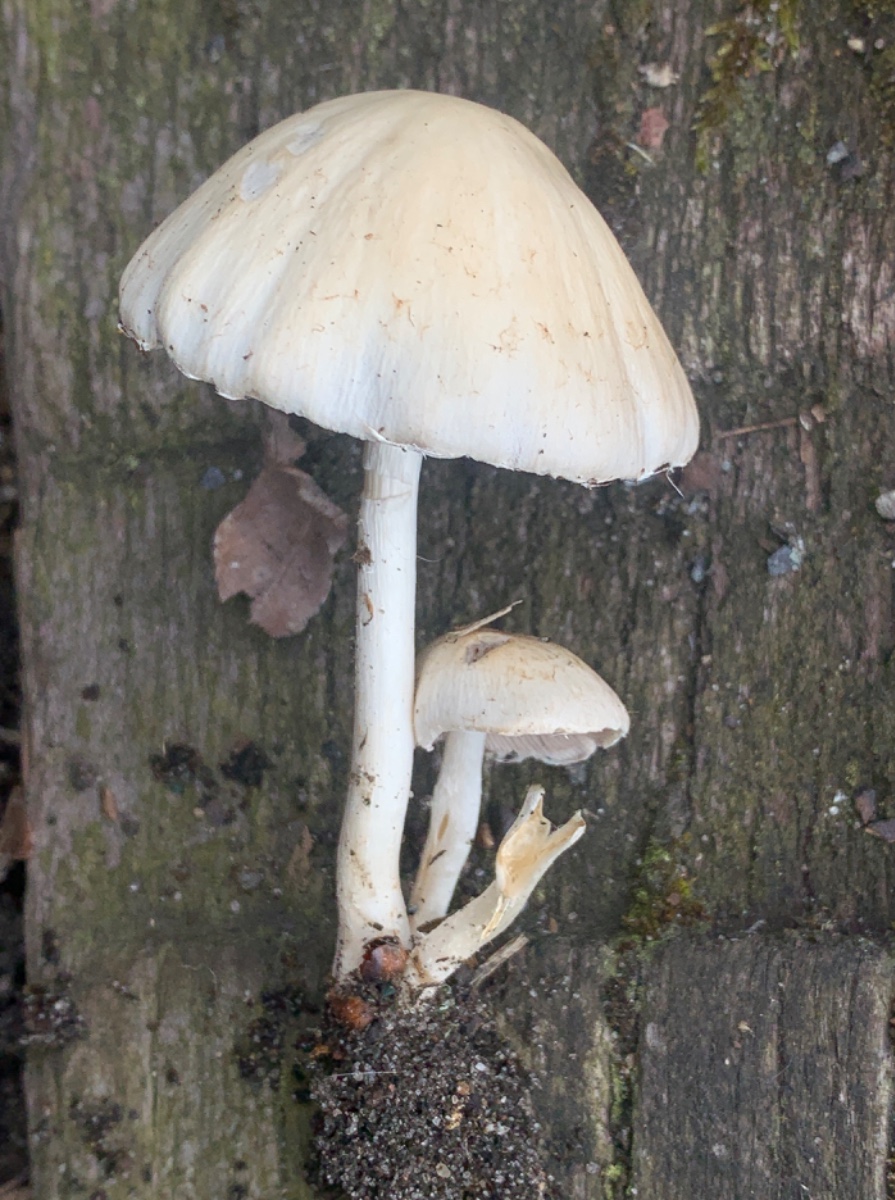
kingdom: Fungi
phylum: Basidiomycota
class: Agaricomycetes
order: Agaricales
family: Psathyrellaceae
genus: Candolleomyces
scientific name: Candolleomyces candolleanus
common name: Candolles mørkhat
